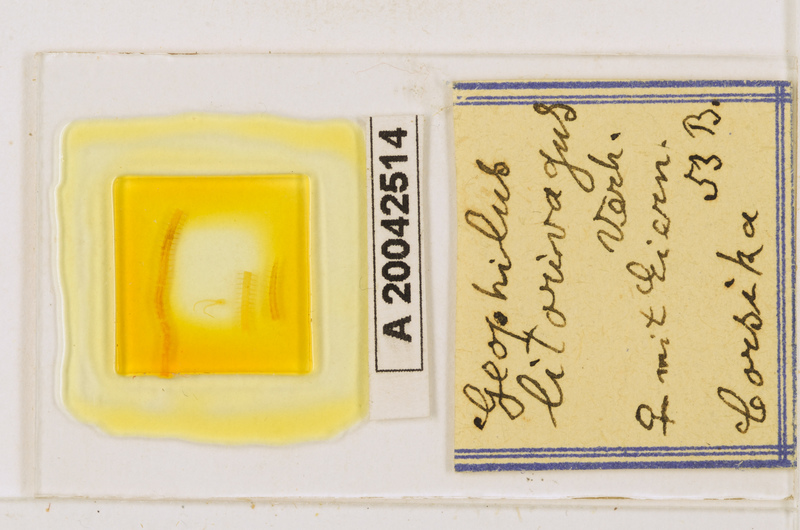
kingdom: Animalia
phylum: Arthropoda
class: Chilopoda
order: Geophilomorpha
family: Geophilidae
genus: Geophilus
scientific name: Geophilus litorivagus
